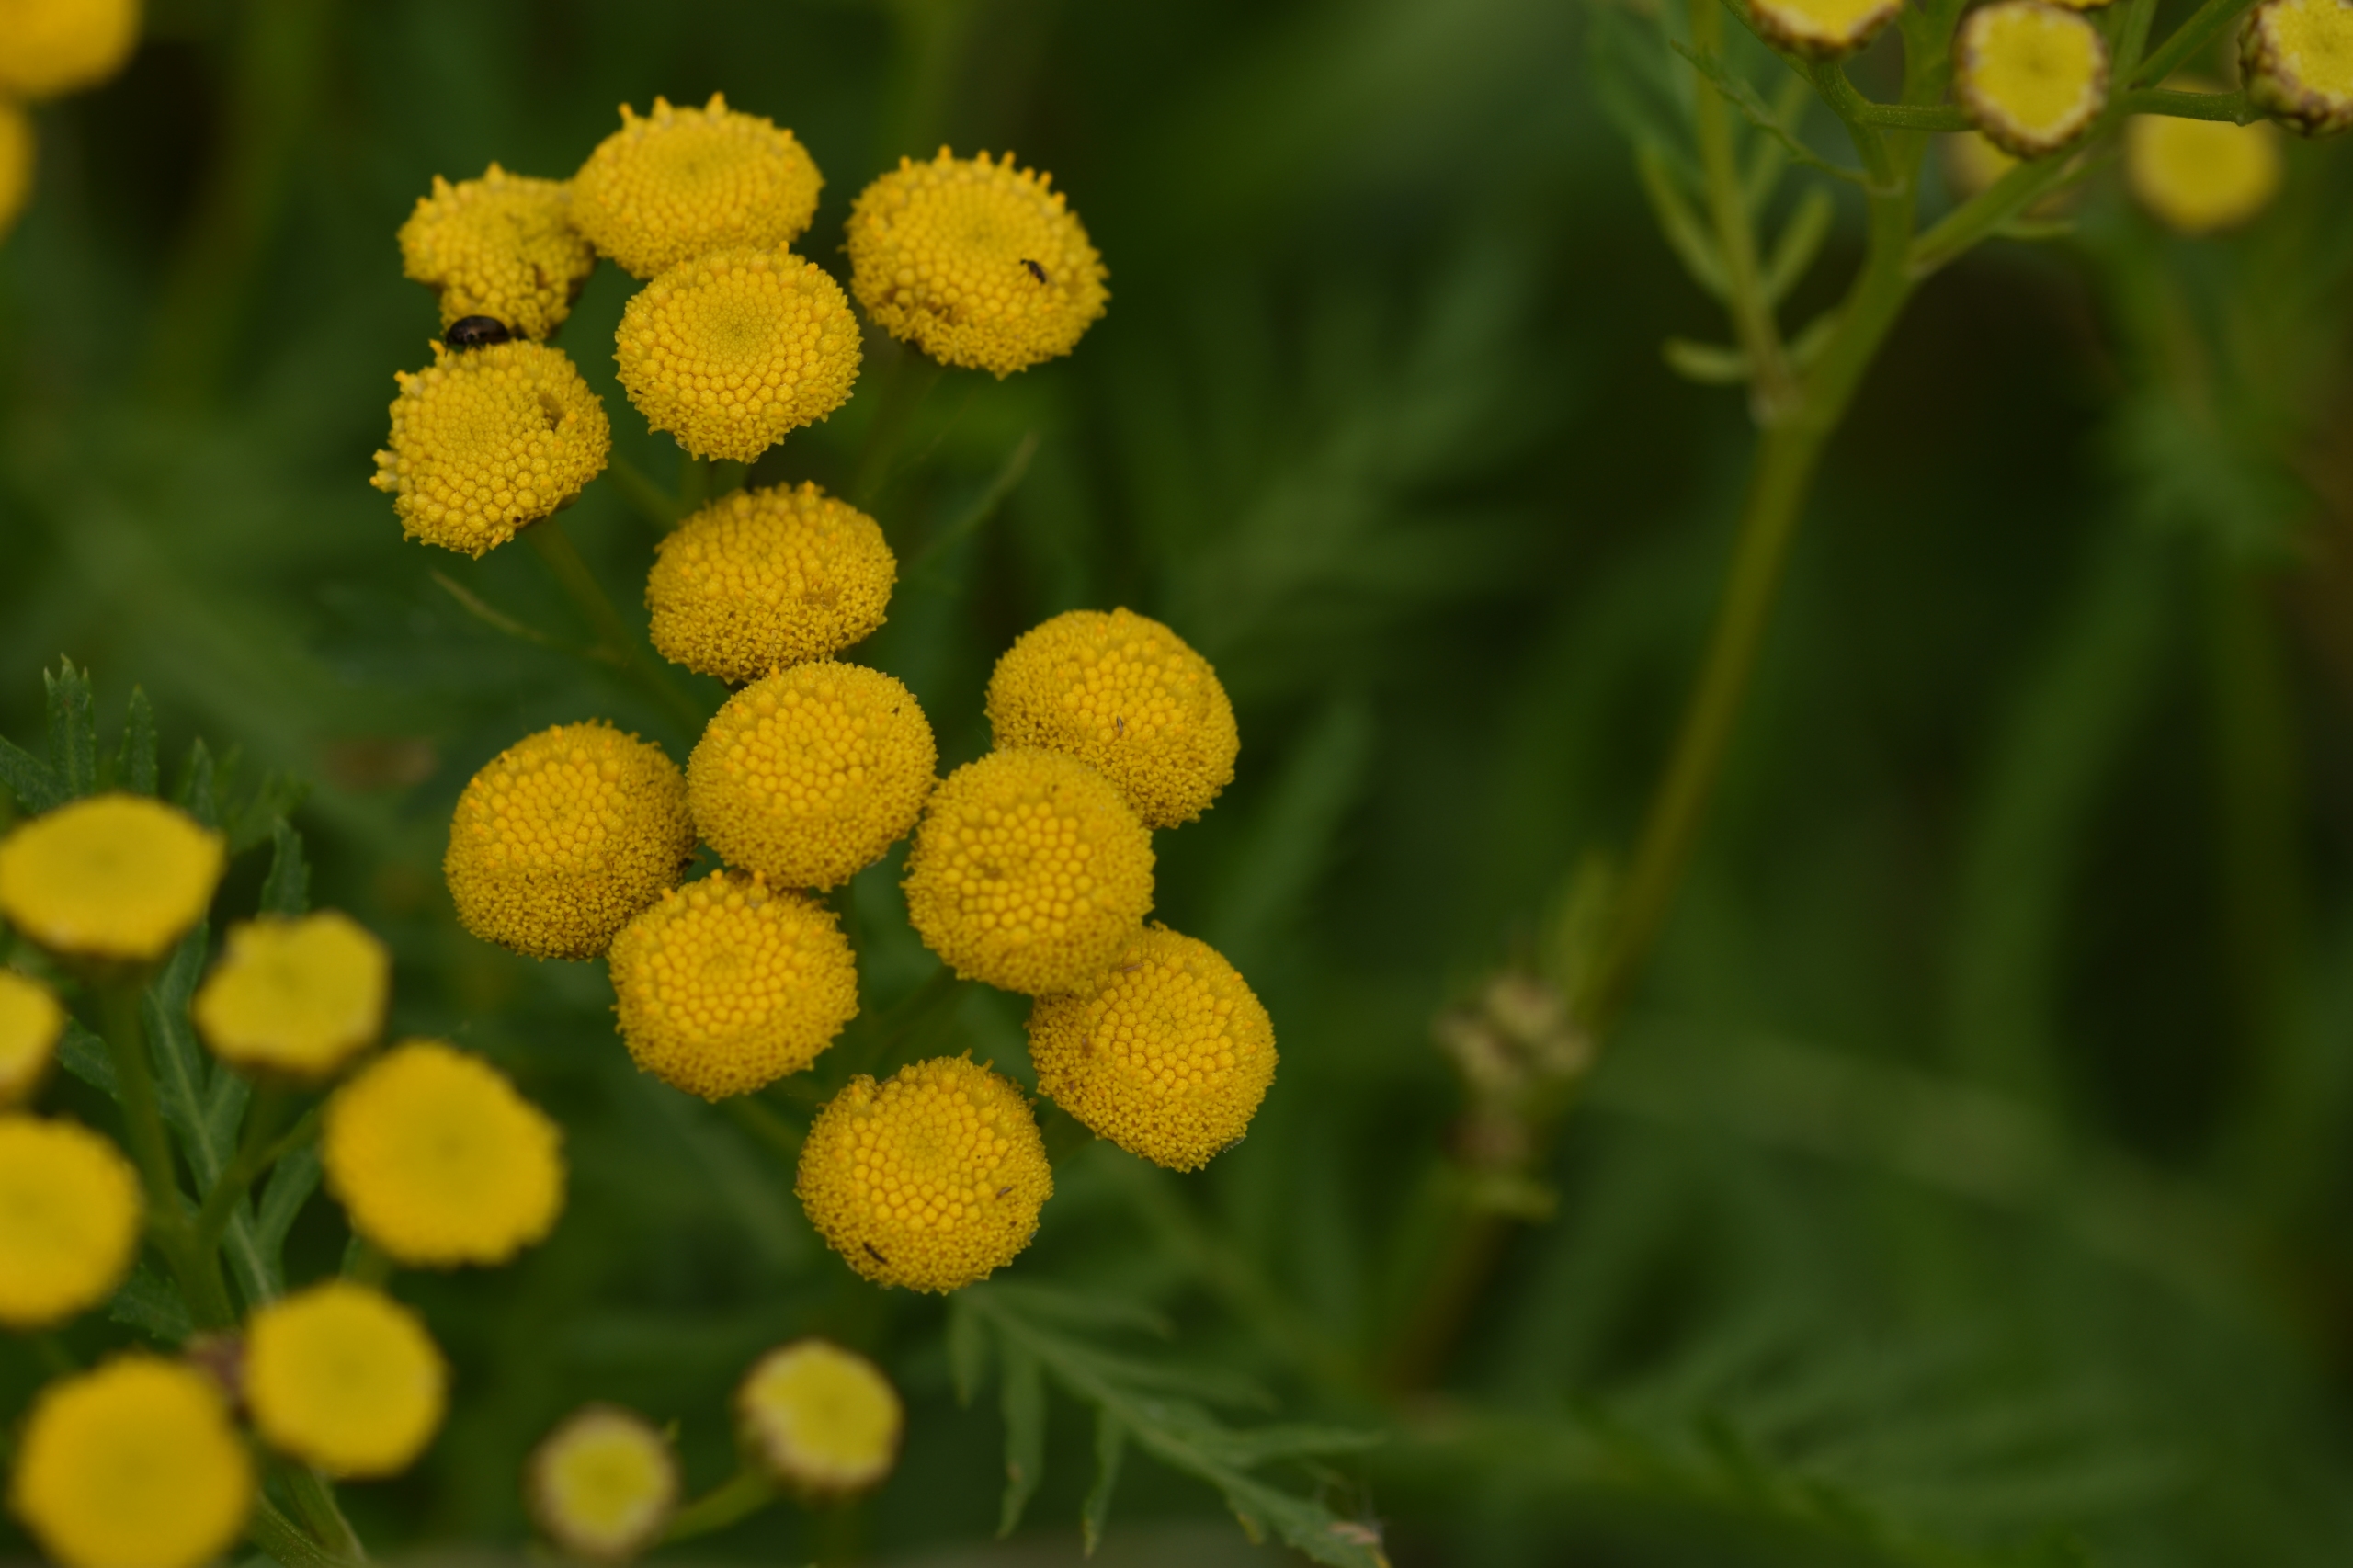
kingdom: Plantae
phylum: Tracheophyta
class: Magnoliopsida
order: Asterales
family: Asteraceae
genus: Tanacetum
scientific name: Tanacetum vulgare
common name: Rejnfan
